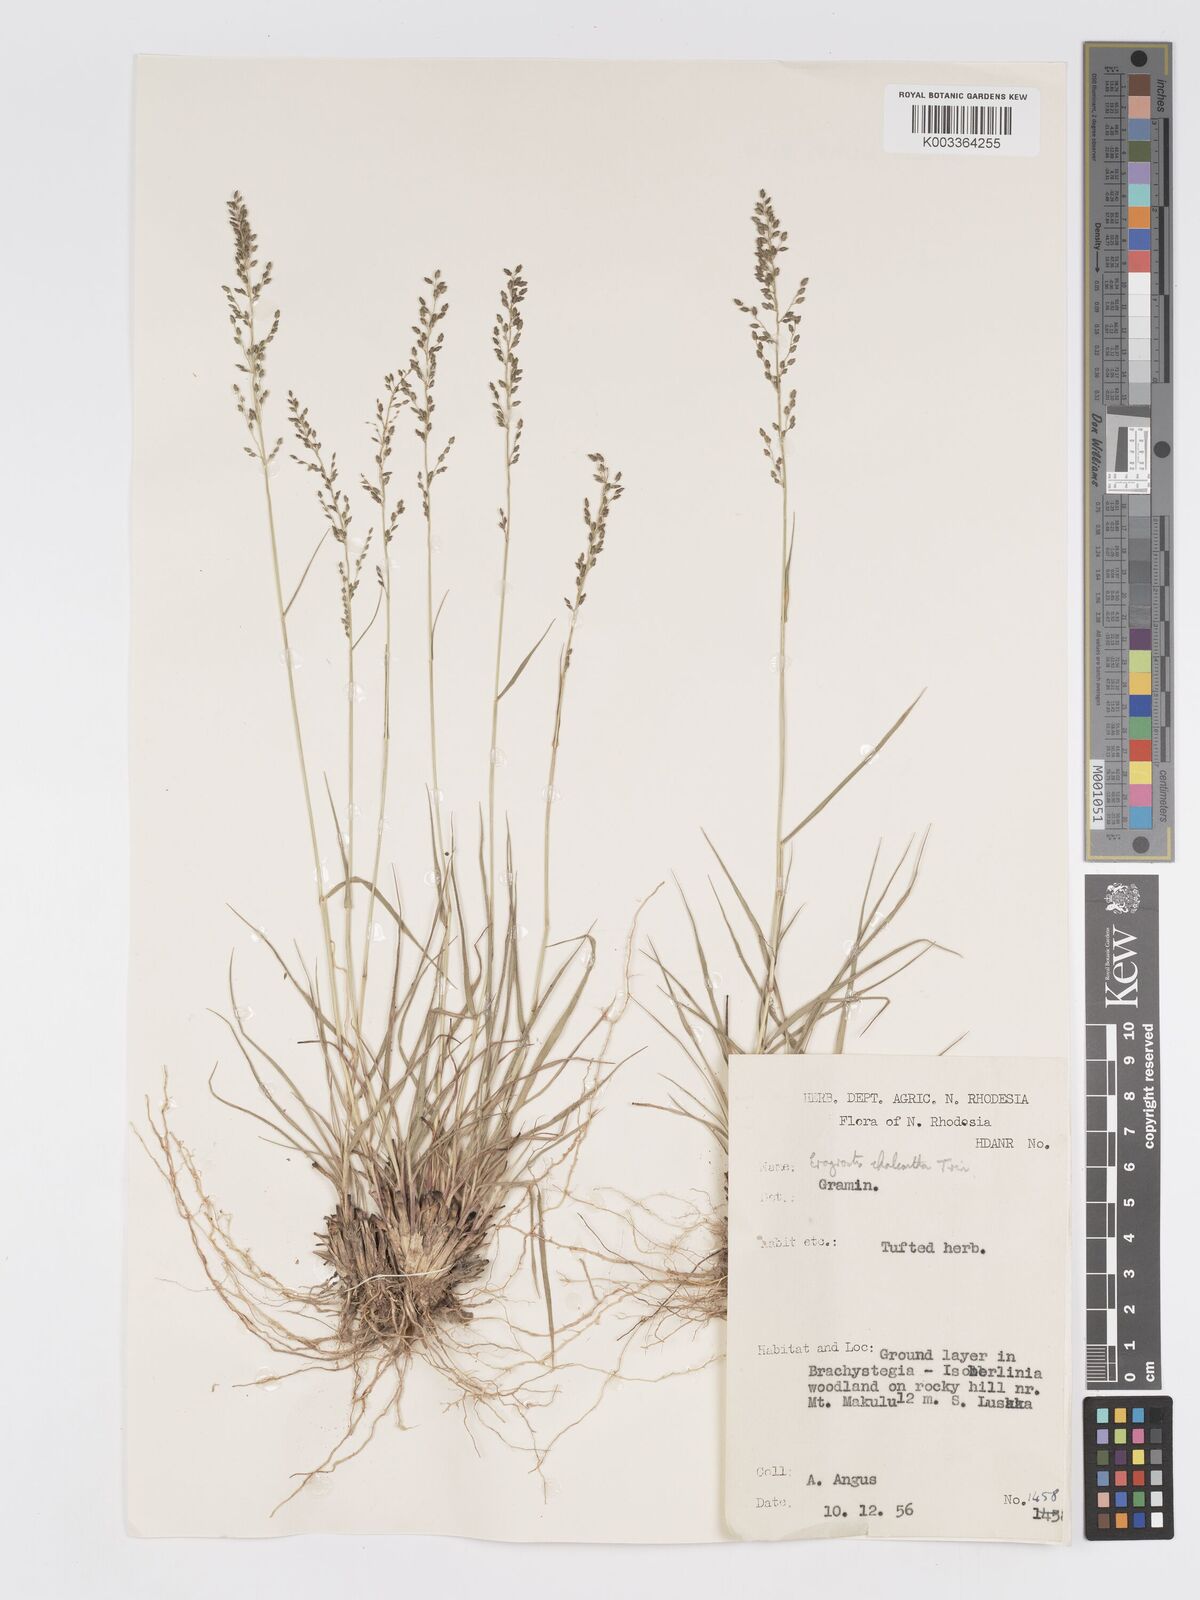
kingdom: Plantae
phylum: Tracheophyta
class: Liliopsida
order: Poales
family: Poaceae
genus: Eragrostis
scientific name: Eragrostis racemosa
